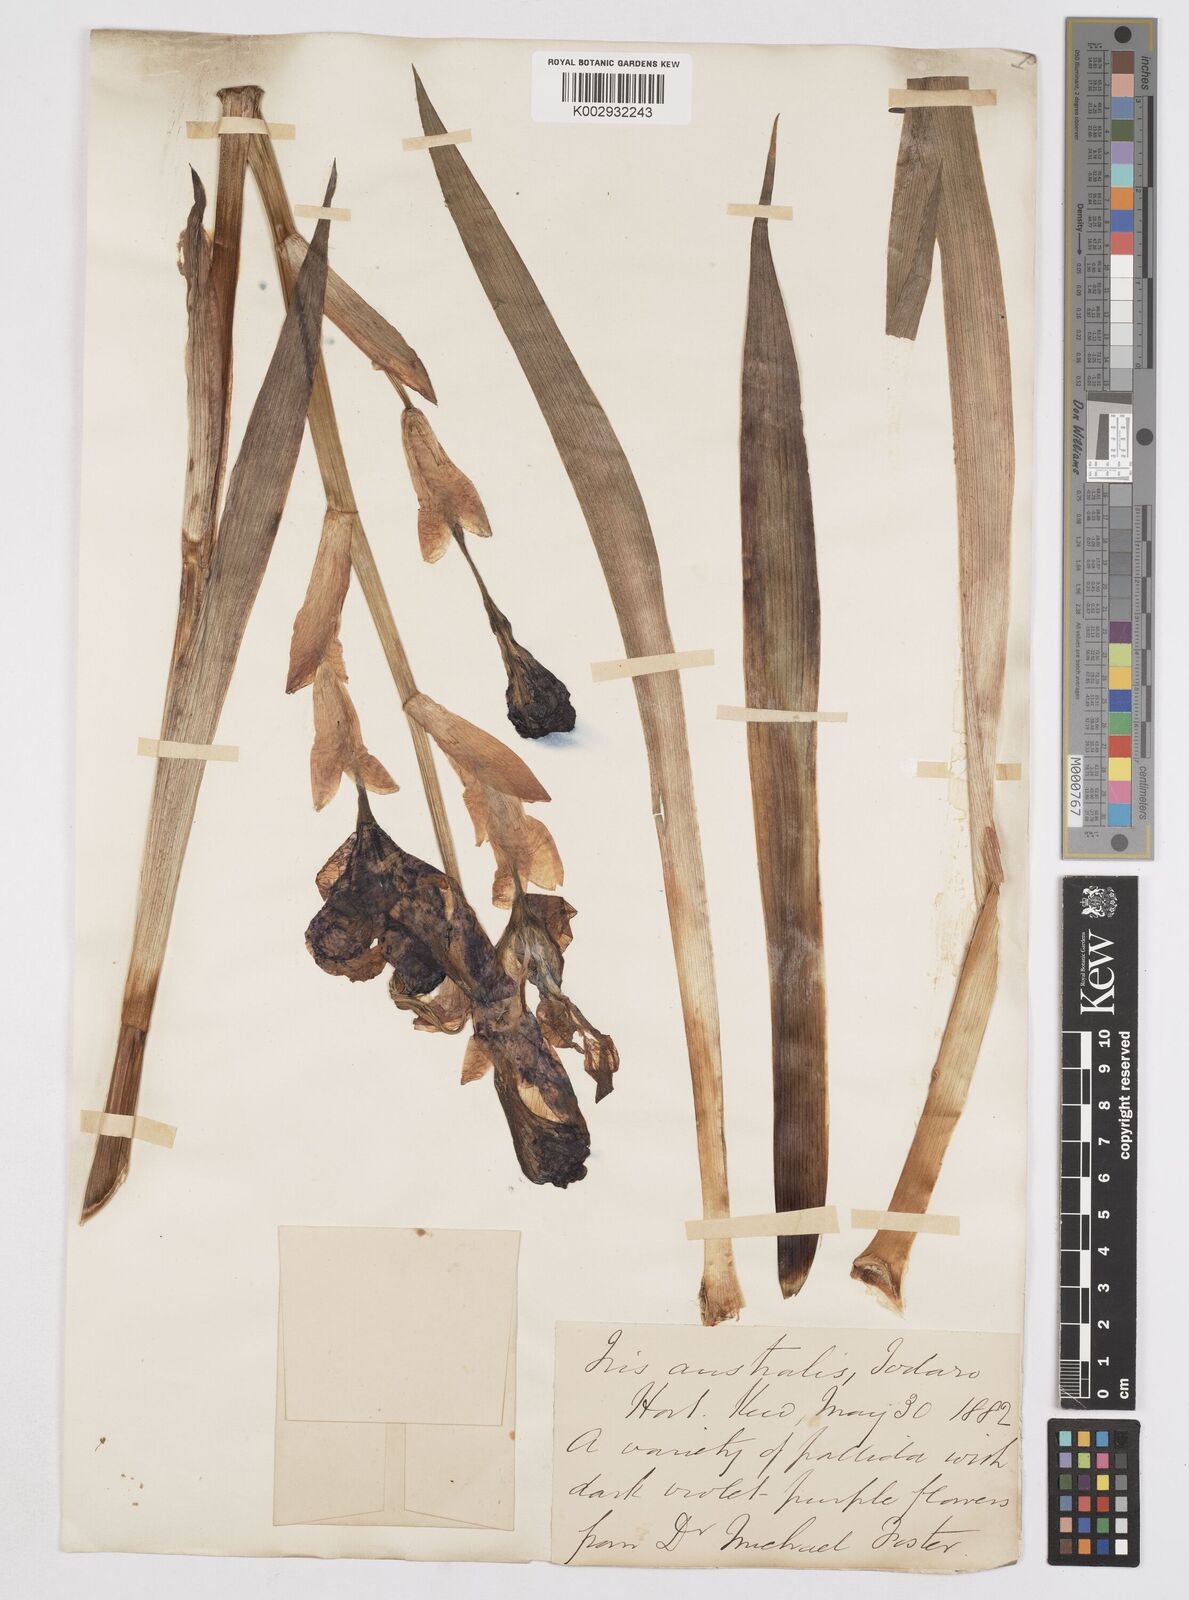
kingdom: Plantae
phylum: Tracheophyta
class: Liliopsida
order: Asparagales
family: Iridaceae
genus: Iris
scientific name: Iris germanica
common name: German iris
